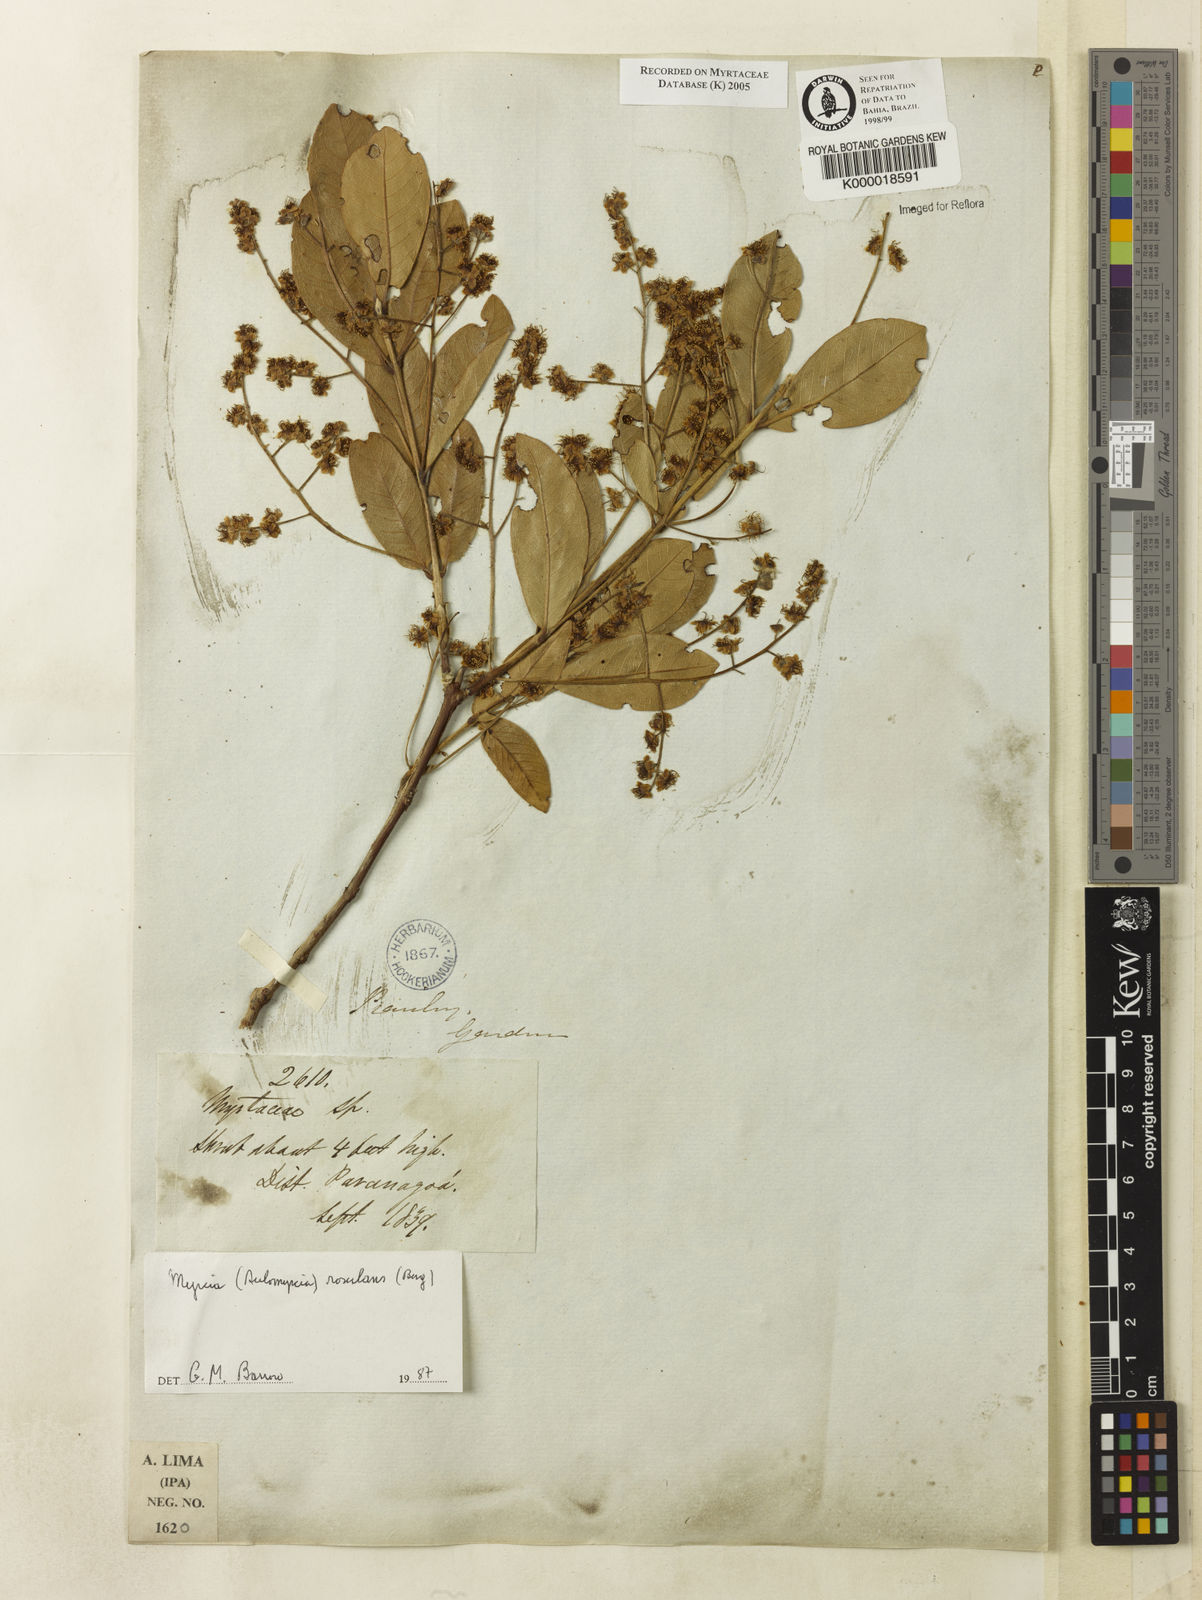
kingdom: Plantae
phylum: Tracheophyta
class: Magnoliopsida
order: Myrtales
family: Myrtaceae
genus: Myrcia
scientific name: Myrcia tomentosa
